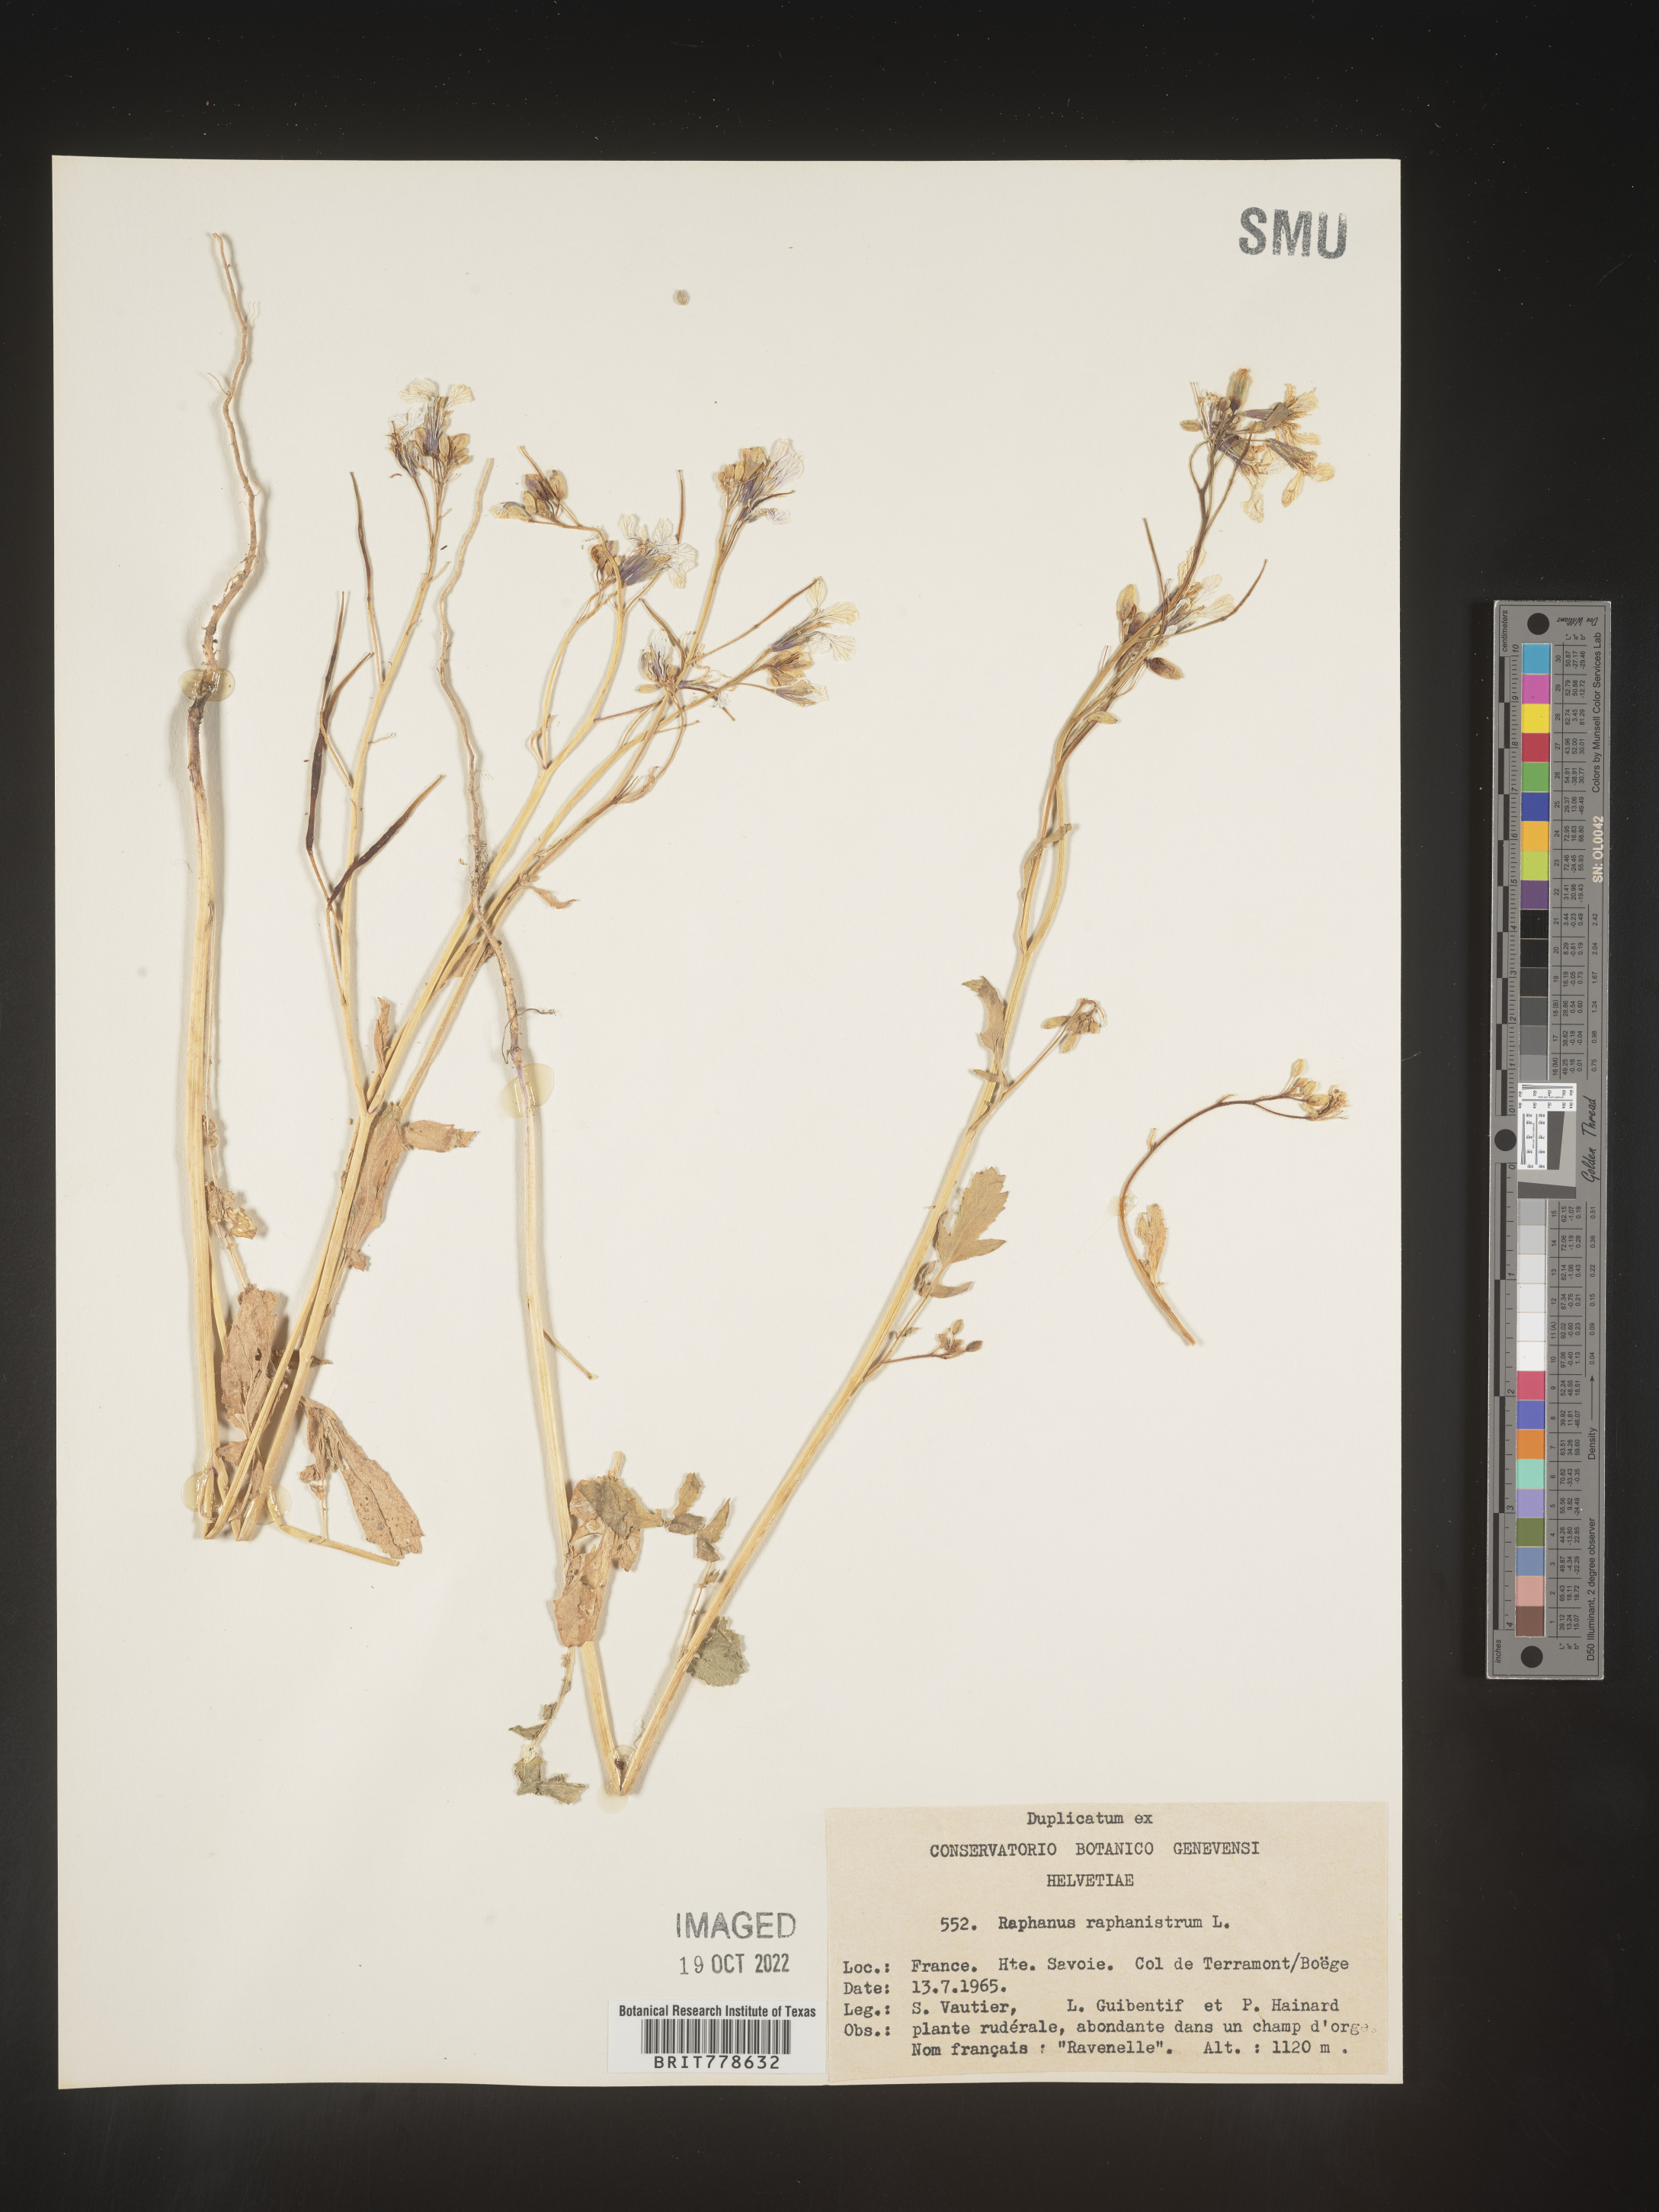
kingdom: Plantae
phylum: Tracheophyta
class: Magnoliopsida
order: Brassicales
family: Brassicaceae
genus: Raphanus
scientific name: Raphanus raphanistrum
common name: Wild radish
